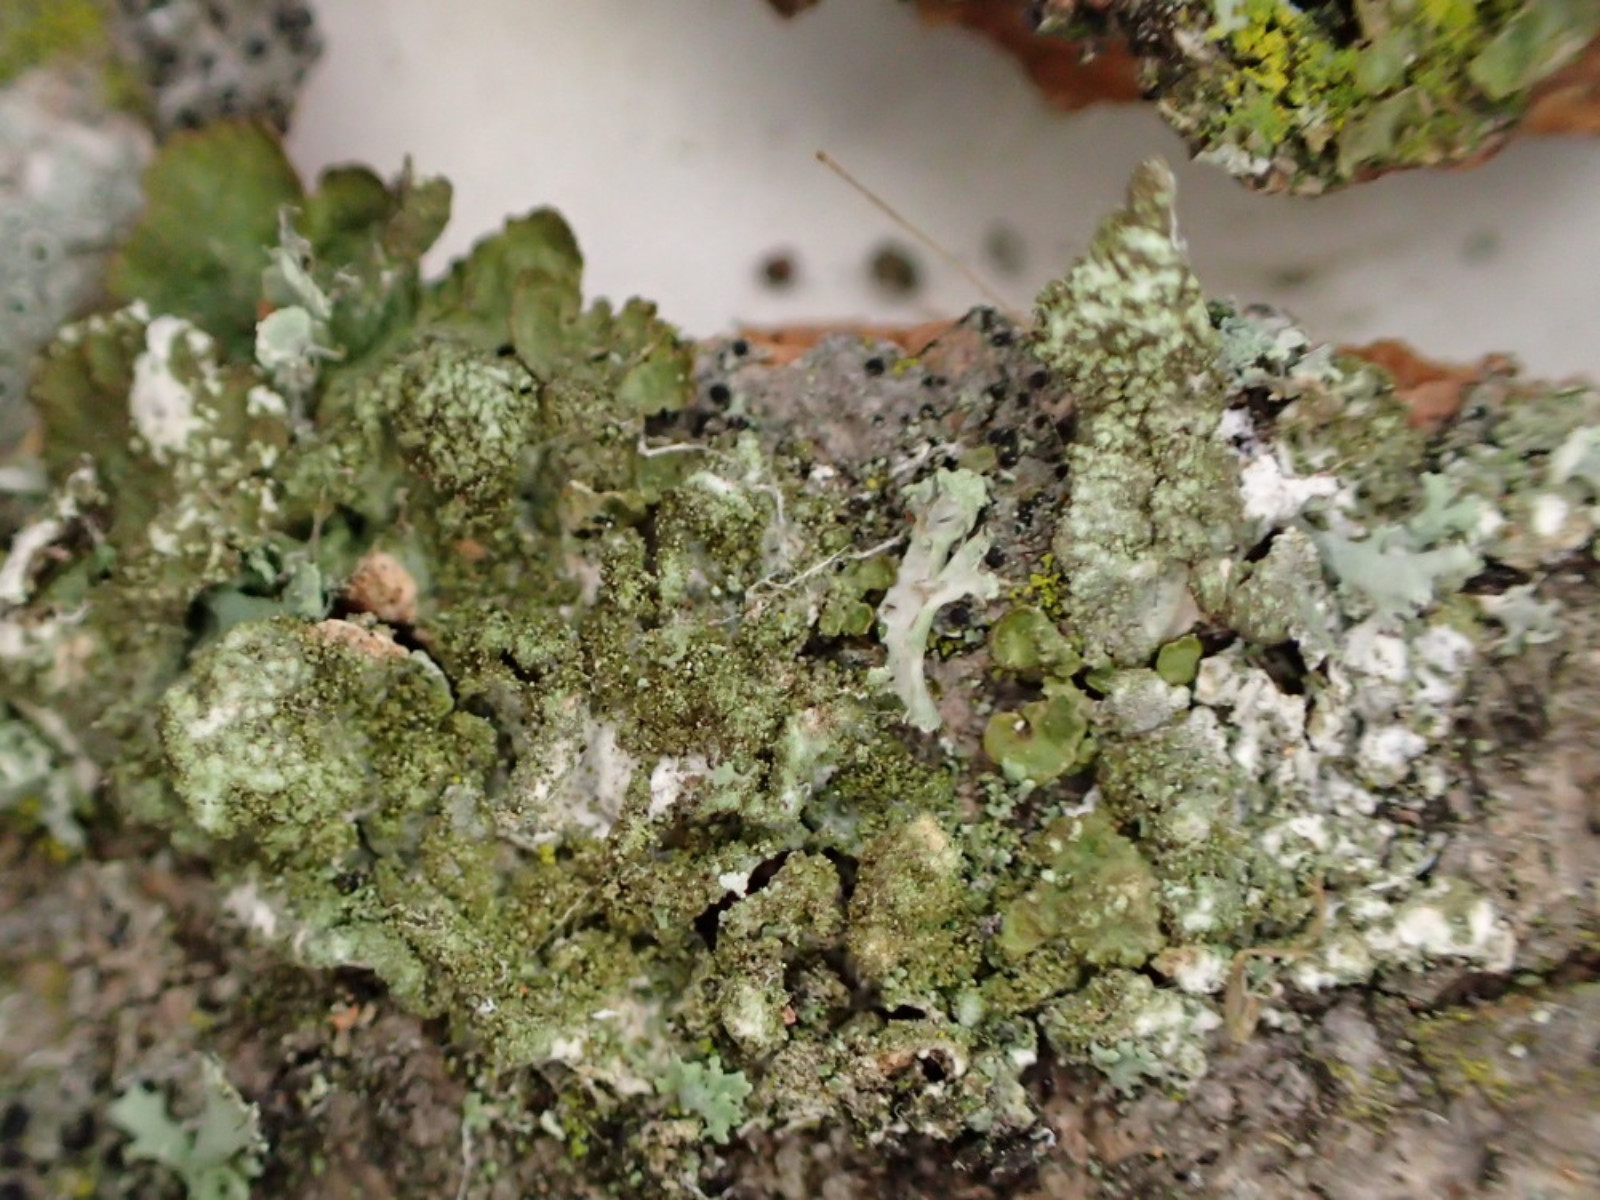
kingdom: Fungi
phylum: Ascomycota
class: Lecanoromycetes
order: Lecanorales
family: Parmeliaceae
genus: Melanelixia
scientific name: Melanelixia subaurifera
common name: guldpudret skållav
